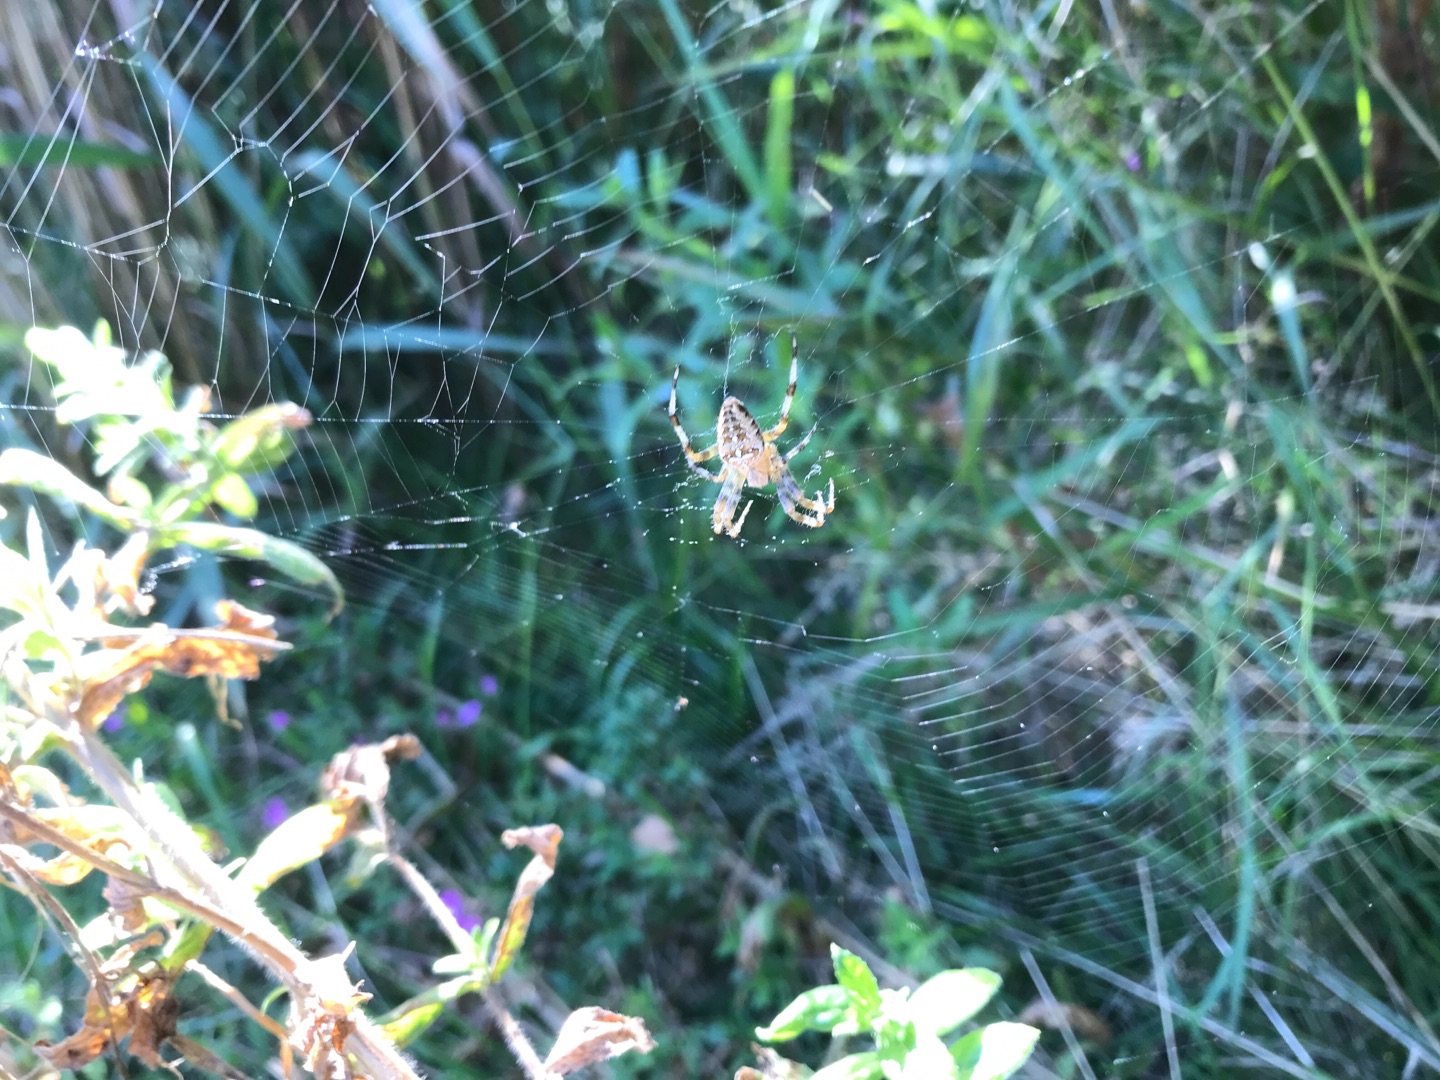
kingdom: Animalia
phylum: Arthropoda
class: Arachnida
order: Araneae
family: Araneidae
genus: Araneus
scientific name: Araneus diadematus
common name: Korsedderkop
